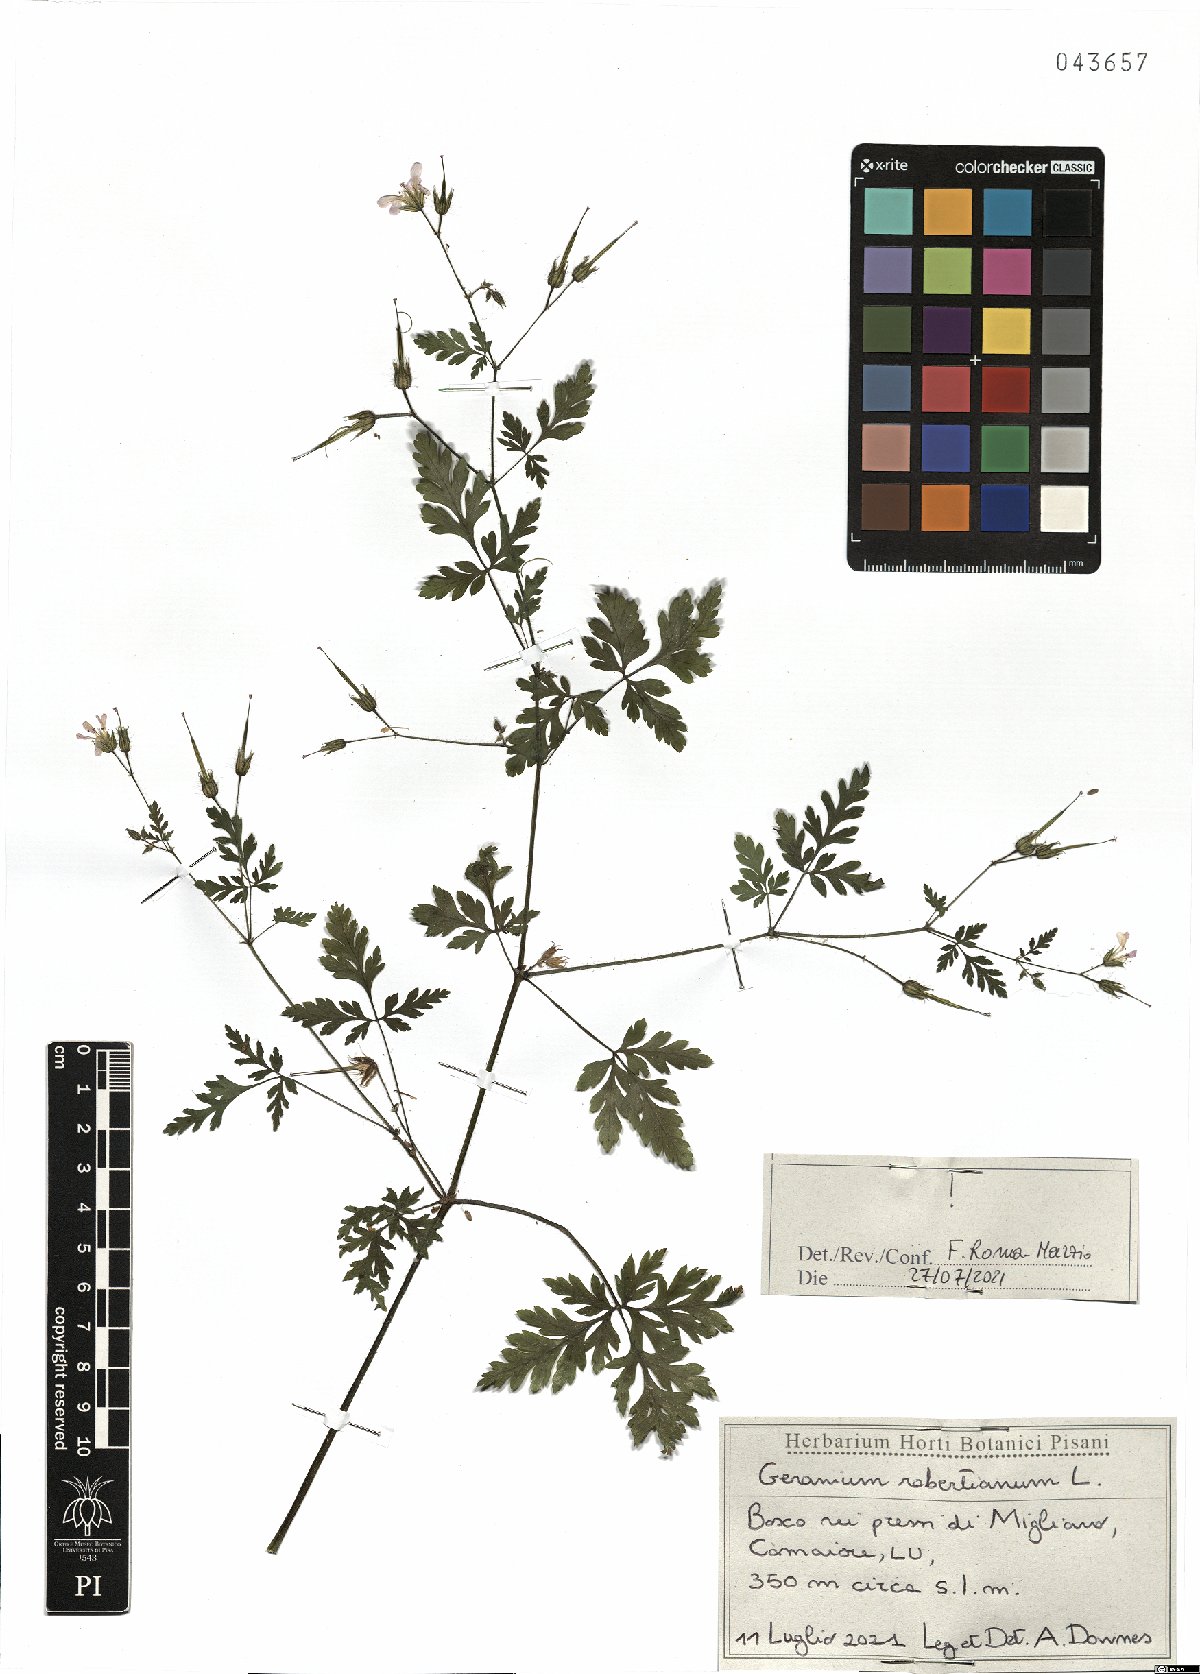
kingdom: Plantae
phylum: Tracheophyta
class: Magnoliopsida
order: Geraniales
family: Geraniaceae
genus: Geranium
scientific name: Geranium robertianum
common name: Herb-robert
